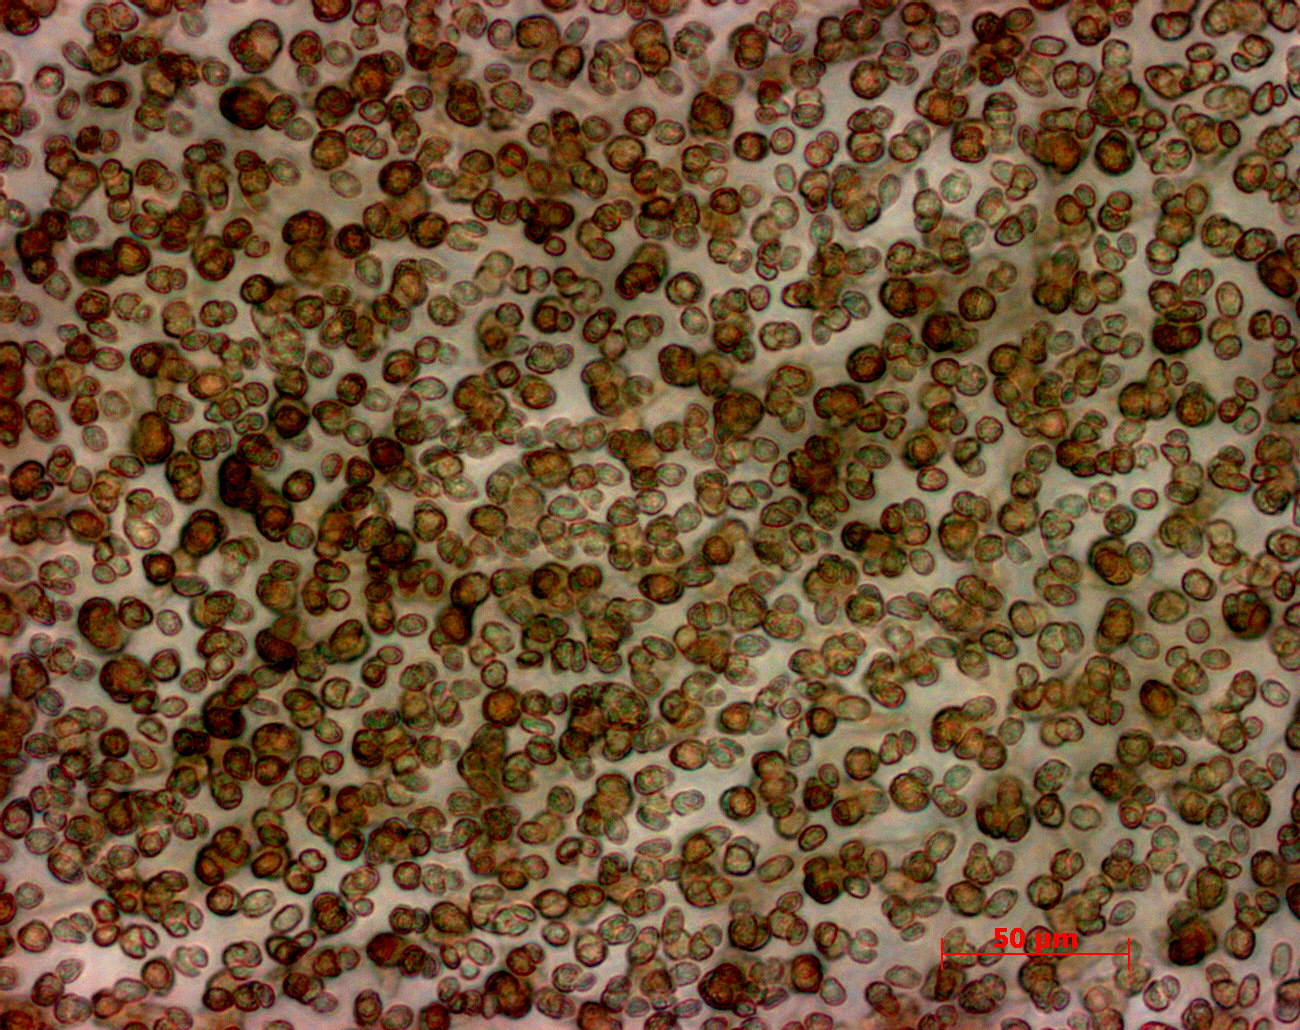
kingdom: Plantae
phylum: Rhodophyta
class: Florideophyceae
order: Halymeniales
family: Halymeniaceae
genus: Amalthea
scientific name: Amalthea freemaniae
